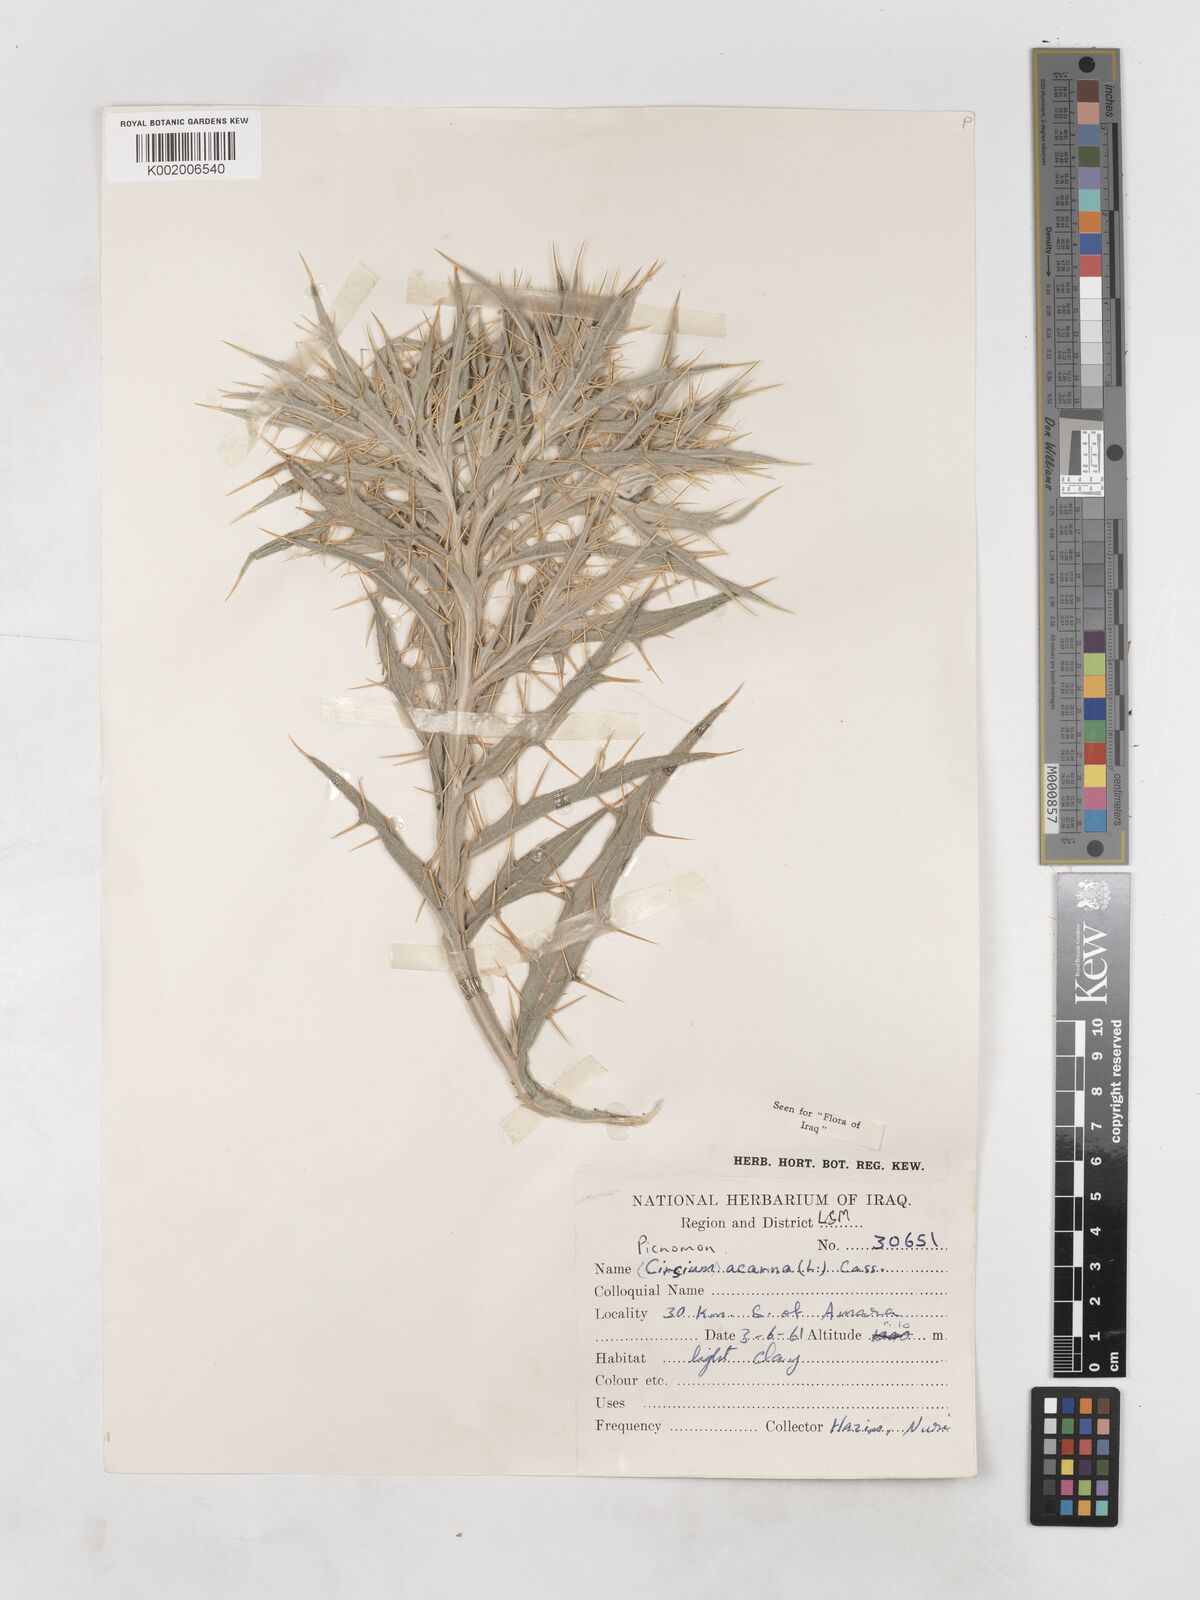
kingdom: Plantae
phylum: Tracheophyta
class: Magnoliopsida
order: Asterales
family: Asteraceae
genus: Picnomon
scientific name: Picnomon acarna
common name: Soldier thistle
